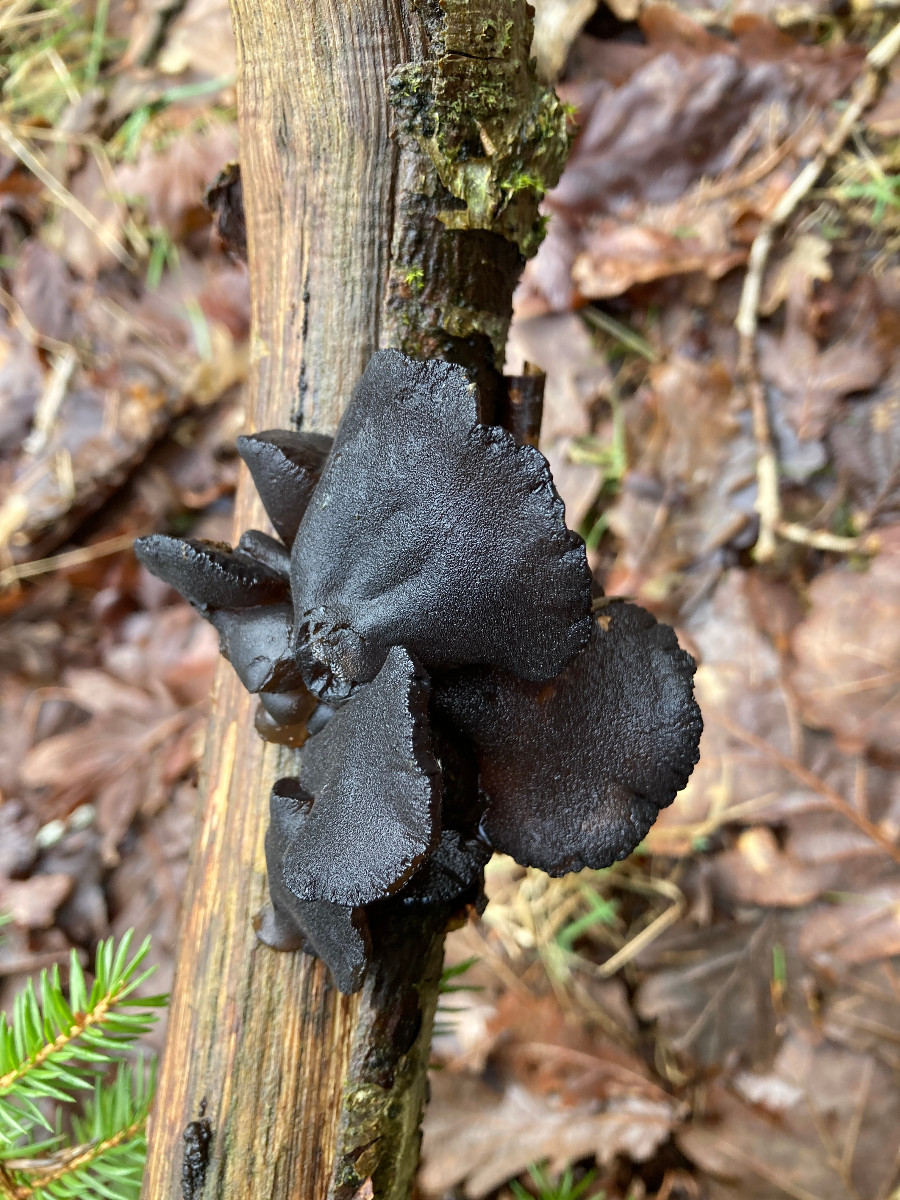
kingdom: Fungi
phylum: Basidiomycota
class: Agaricomycetes
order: Auriculariales
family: Auriculariaceae
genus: Exidia
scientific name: Exidia glandulosa
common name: ege-bævretop
